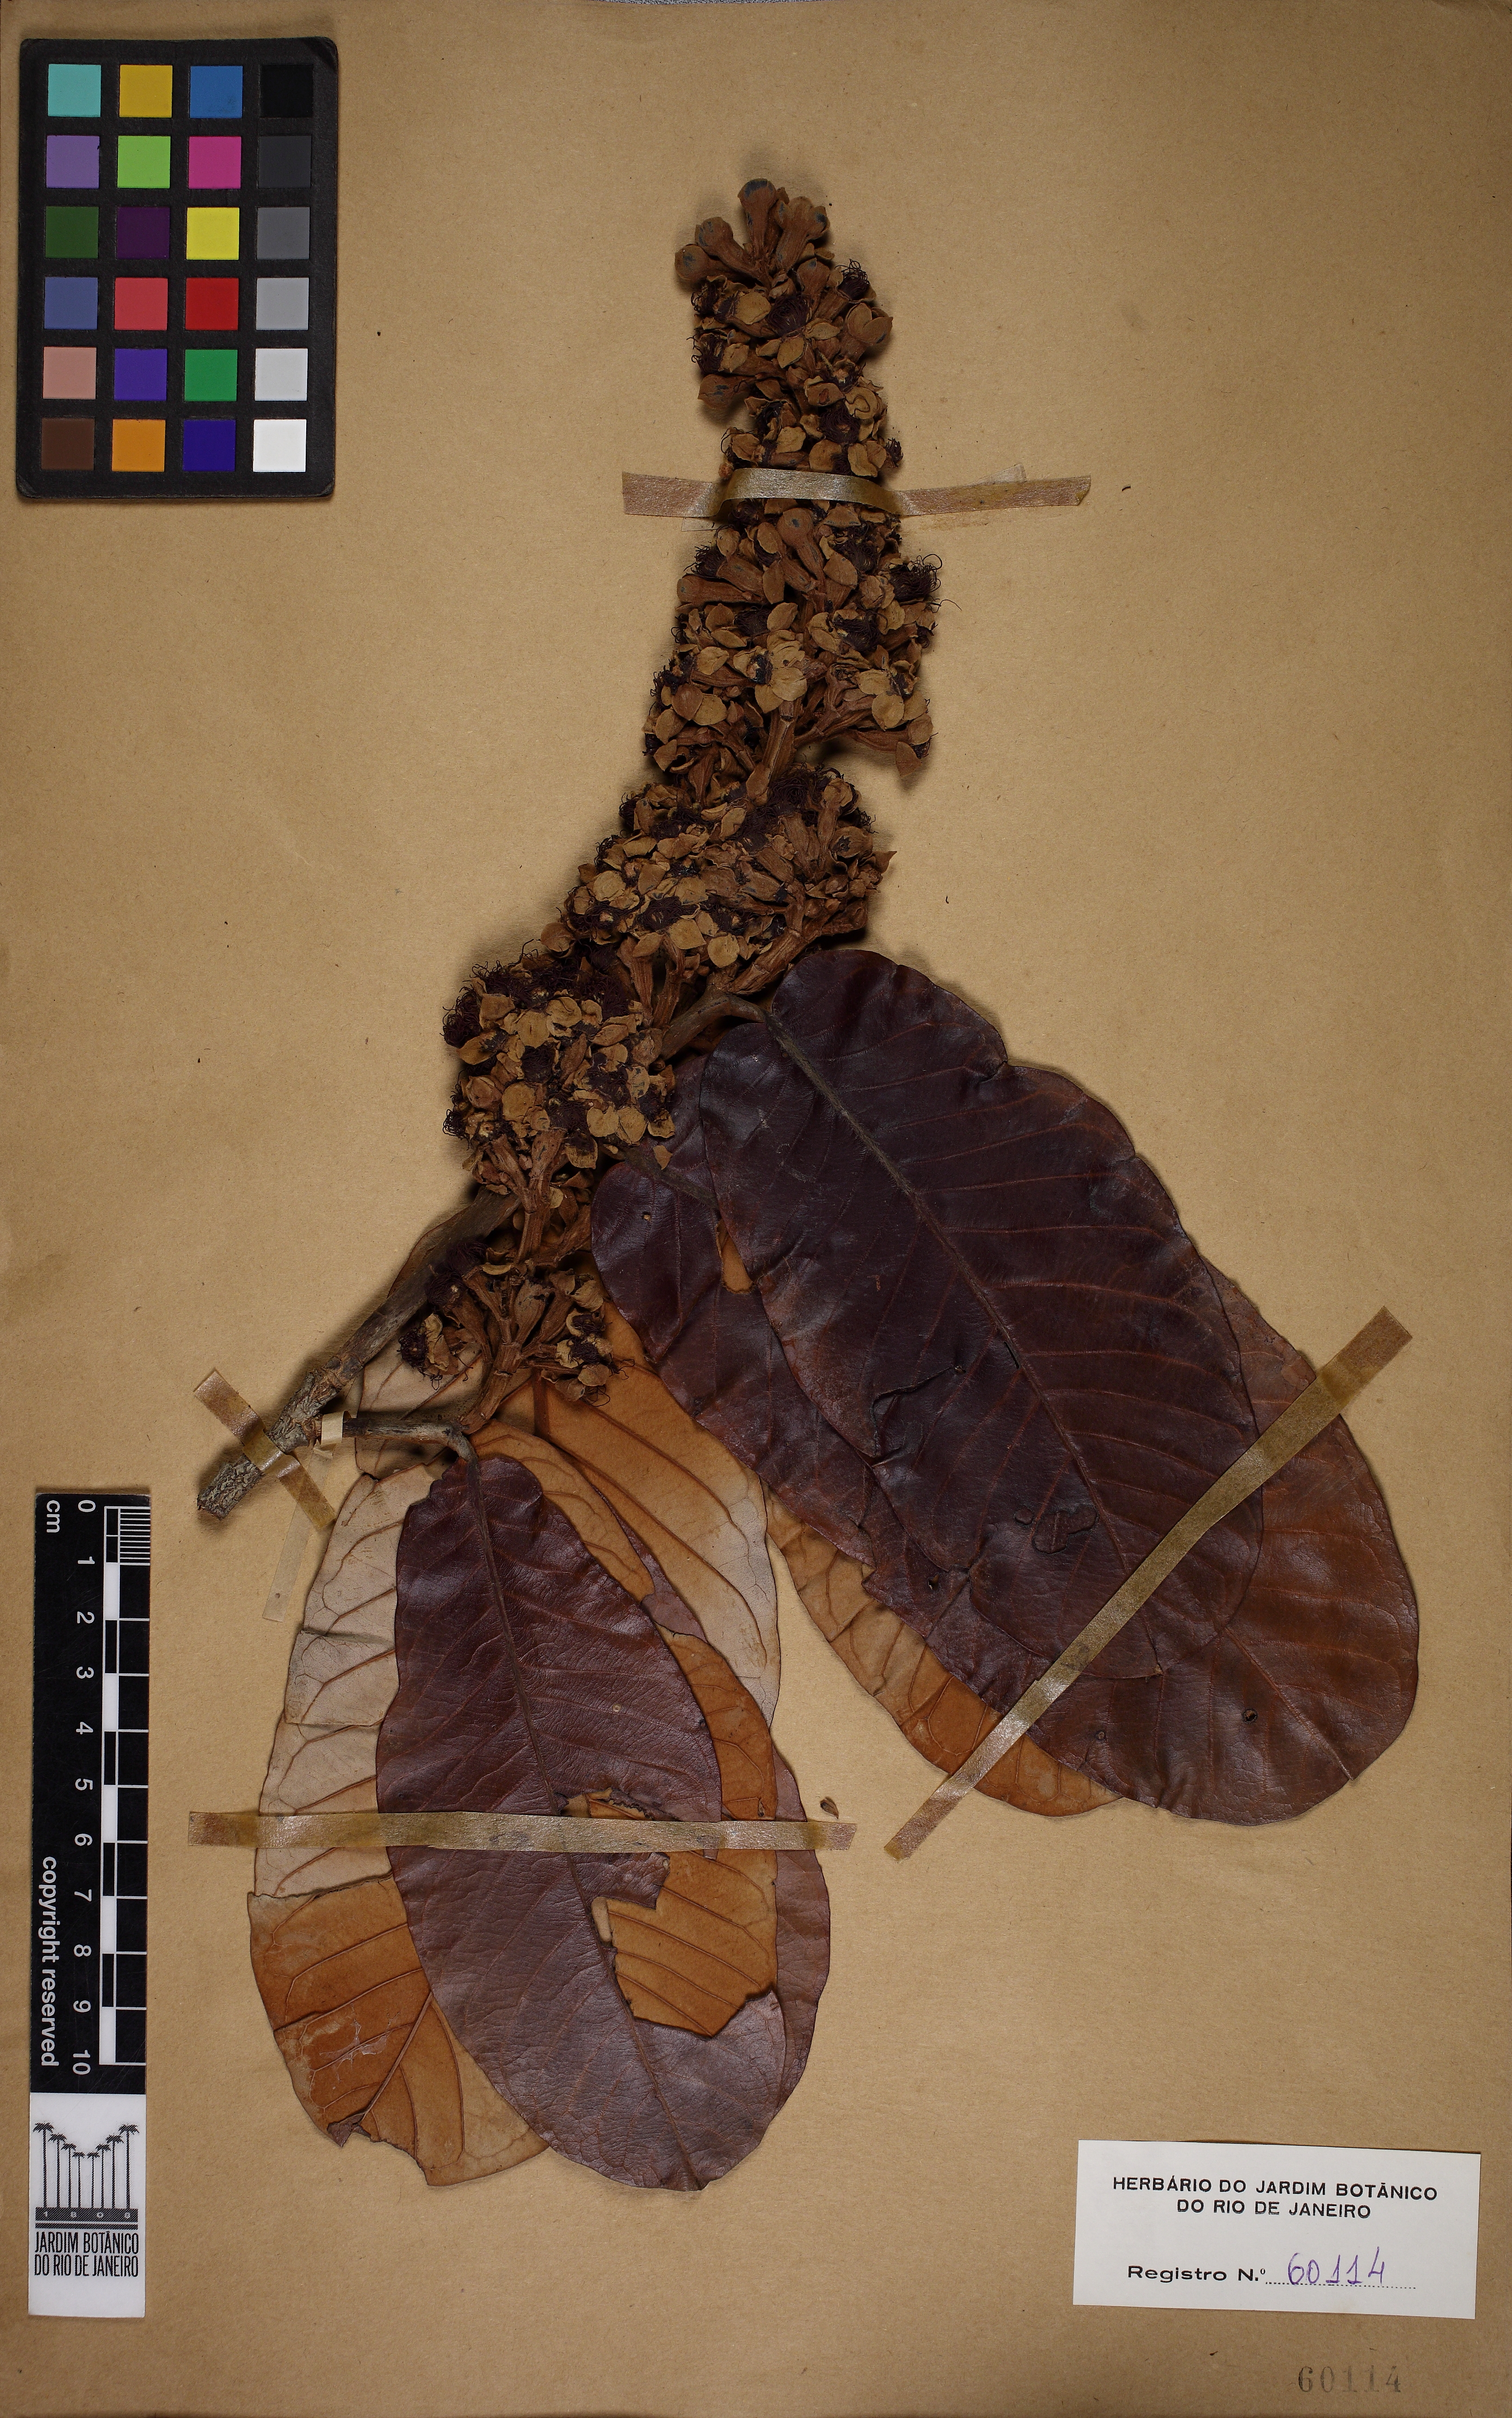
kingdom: Plantae
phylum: Tracheophyta
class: Magnoliopsida
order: Malpighiales
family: Chrysobalanaceae
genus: Couepia
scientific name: Couepia robusta
